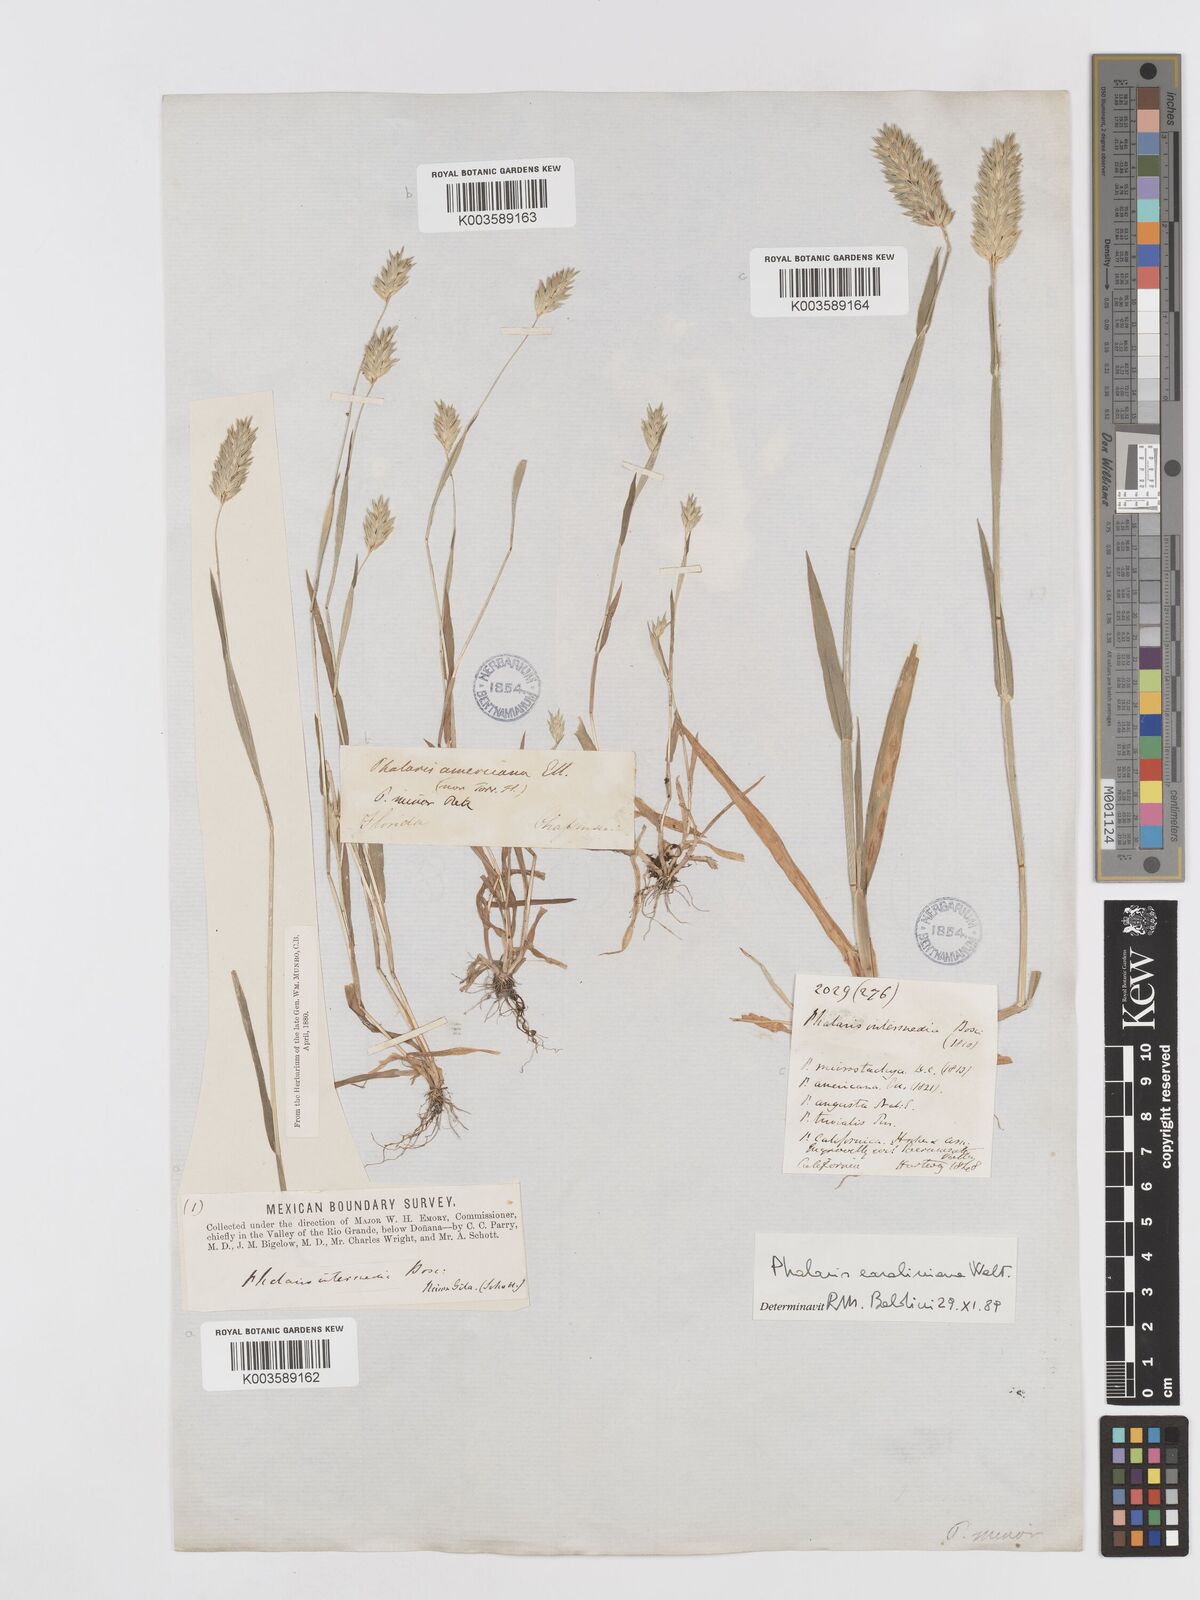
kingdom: Plantae
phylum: Tracheophyta
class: Liliopsida
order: Poales
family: Poaceae
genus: Phalaris
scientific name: Phalaris caroliniana
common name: May grass
